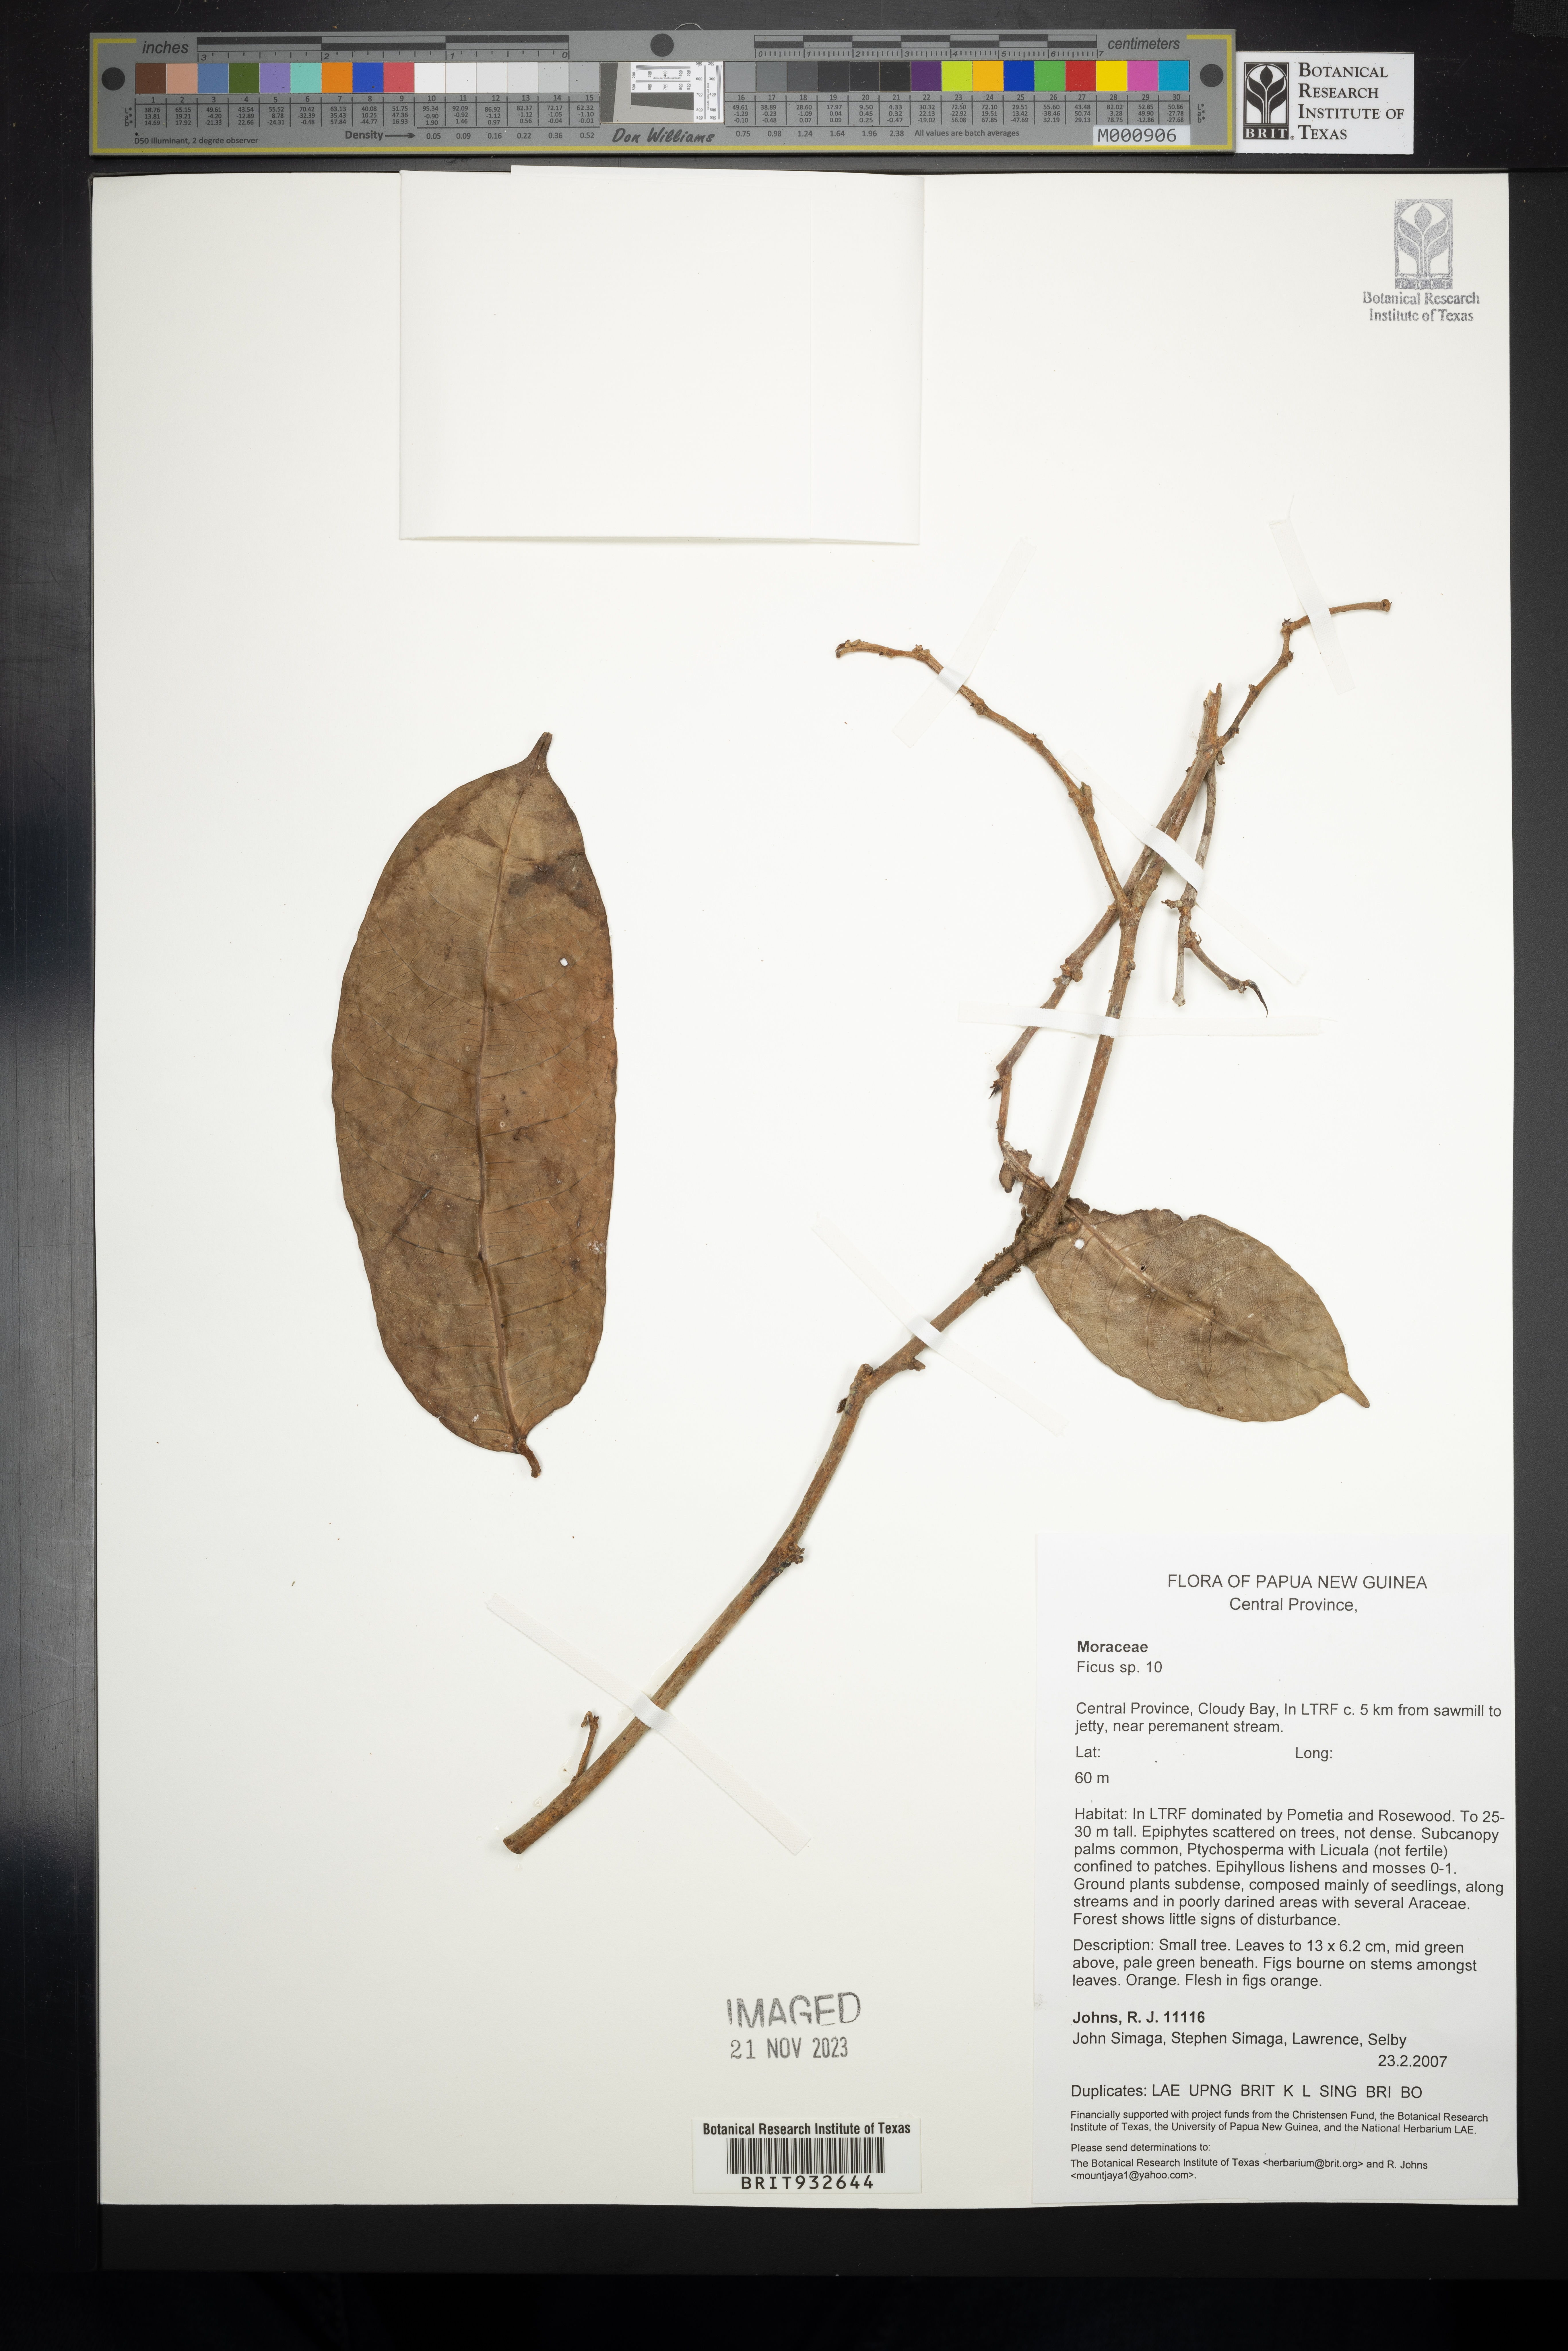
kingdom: Plantae
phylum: Tracheophyta
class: Magnoliopsida
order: Rosales
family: Moraceae
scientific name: Moraceae
